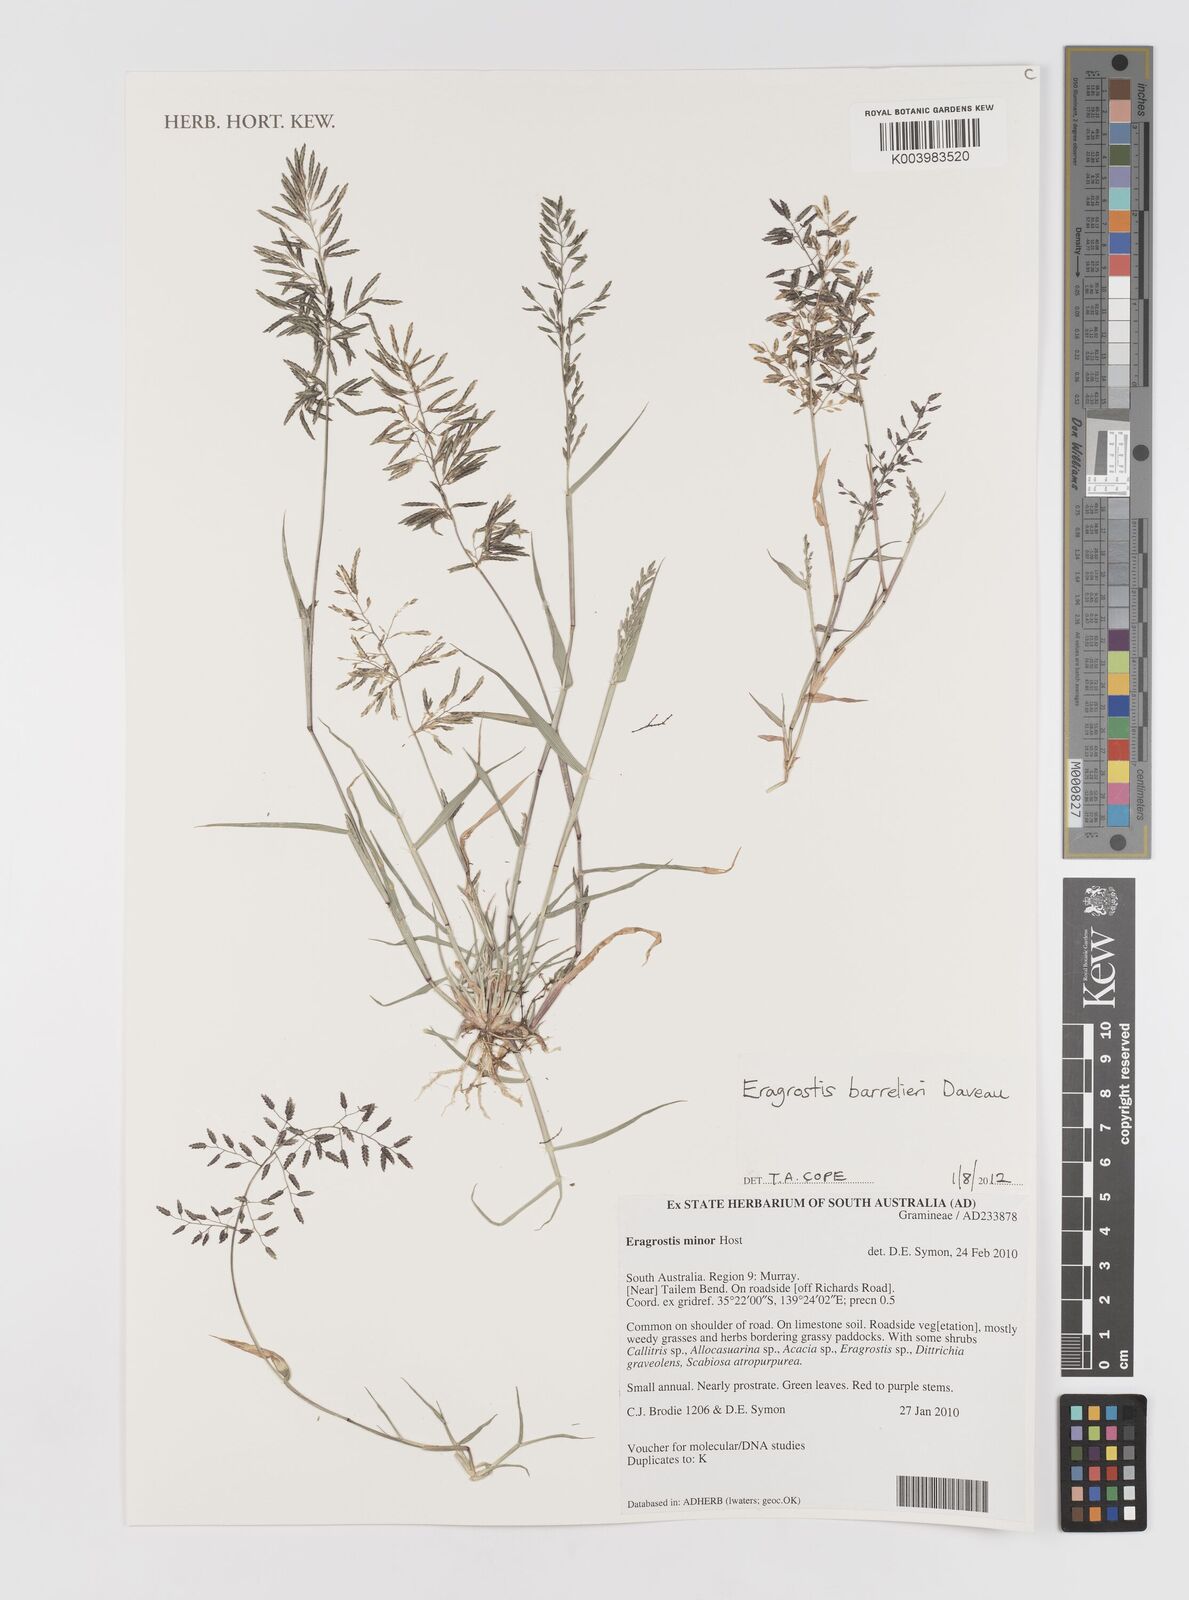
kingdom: Plantae
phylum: Tracheophyta
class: Liliopsida
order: Poales
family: Poaceae
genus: Eragrostis
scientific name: Eragrostis barrelieri
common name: Mediterranean lovegrass
